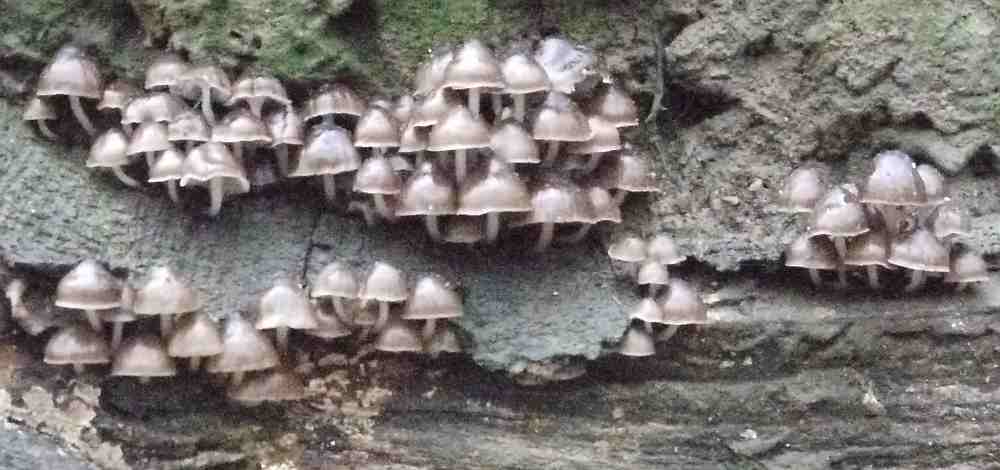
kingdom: Fungi
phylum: Basidiomycota
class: Agaricomycetes
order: Agaricales
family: Mycenaceae
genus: Mycena
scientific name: Mycena tintinnabulum
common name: vinter-huesvamp
